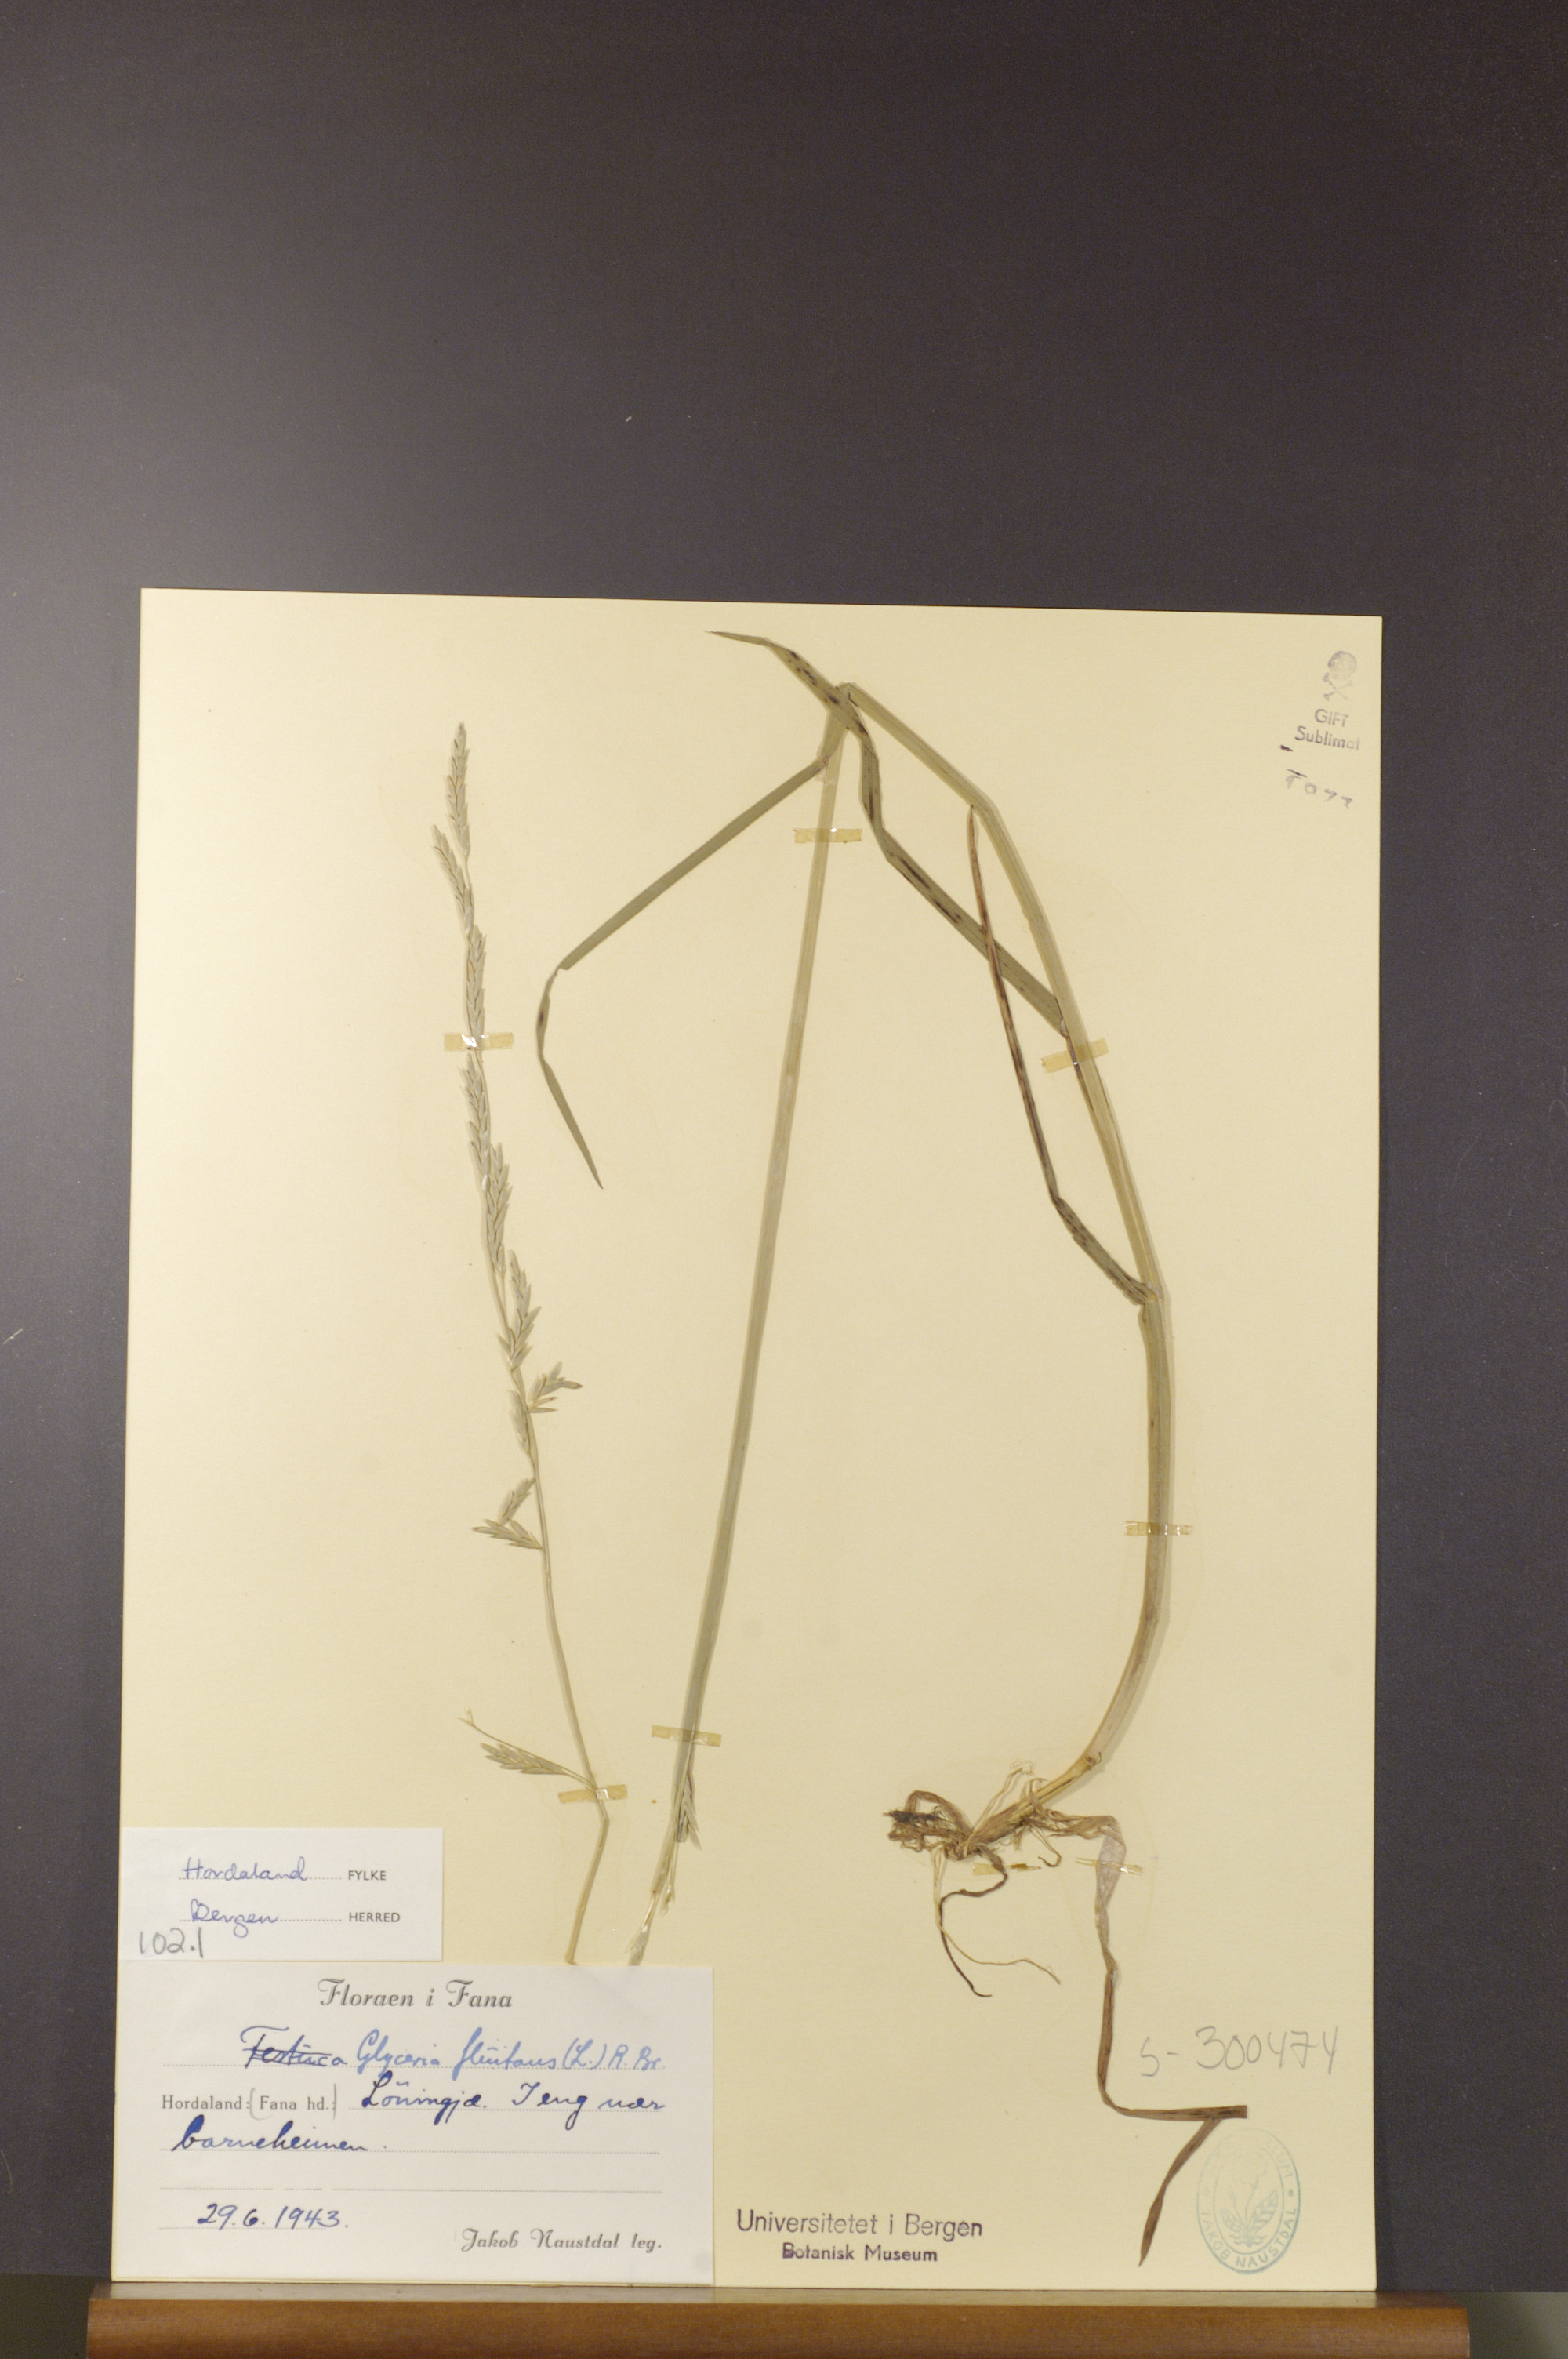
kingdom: Plantae
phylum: Tracheophyta
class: Liliopsida
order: Poales
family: Poaceae
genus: Glyceria
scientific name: Glyceria fluitans
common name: Floating sweet-grass
